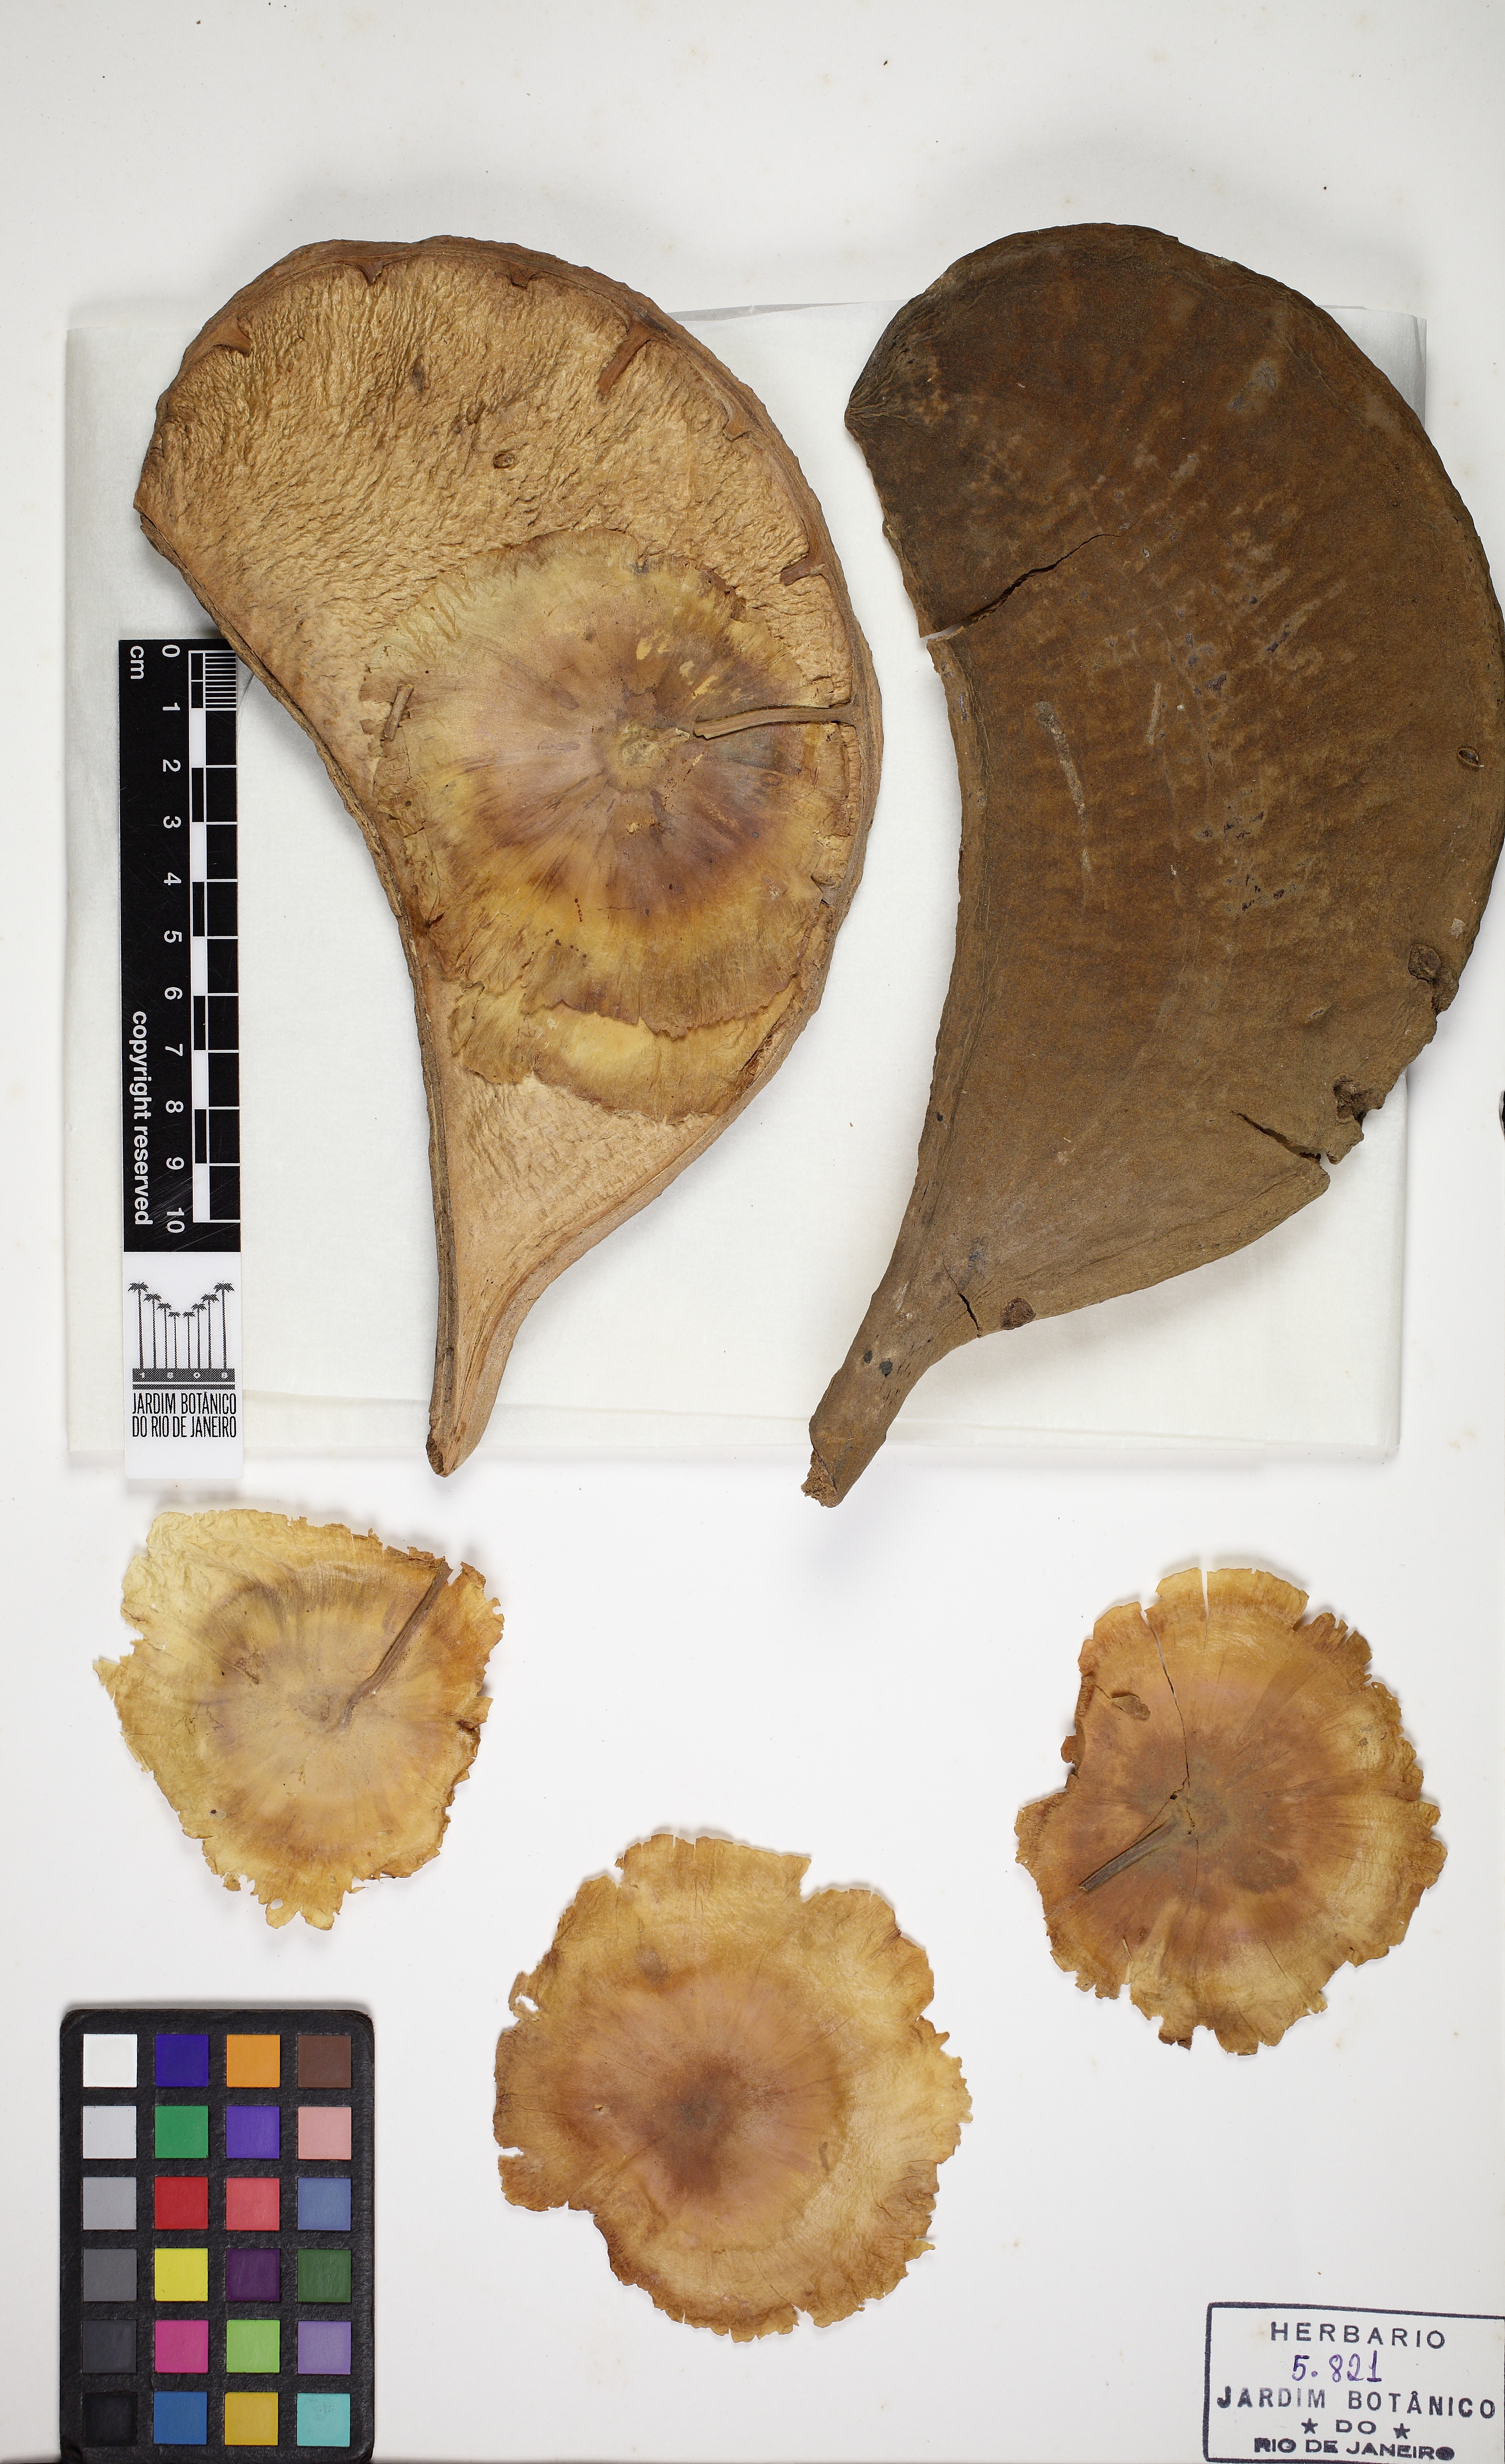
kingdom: Plantae
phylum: Tracheophyta
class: Magnoliopsida
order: Gentianales
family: Apocynaceae
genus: Aspidosperma
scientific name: Aspidosperma macrocarpon
